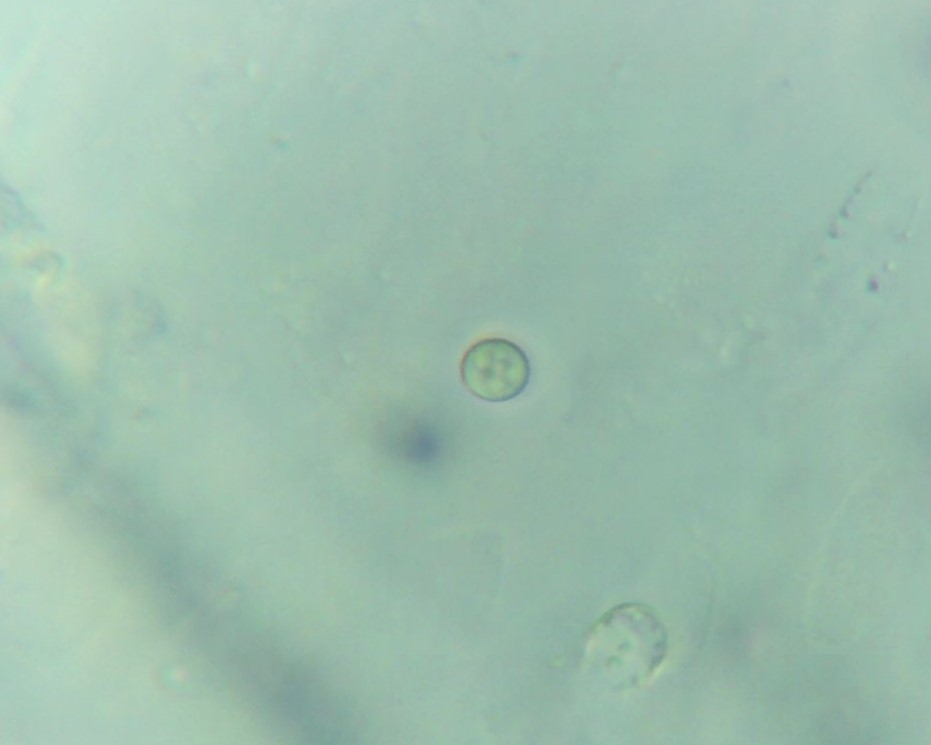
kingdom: Fungi
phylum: Ascomycota
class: Sordariomycetes
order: Hypocreales
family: Hypocreaceae
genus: Trichoderma
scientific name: Trichoderma
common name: kødkerne
